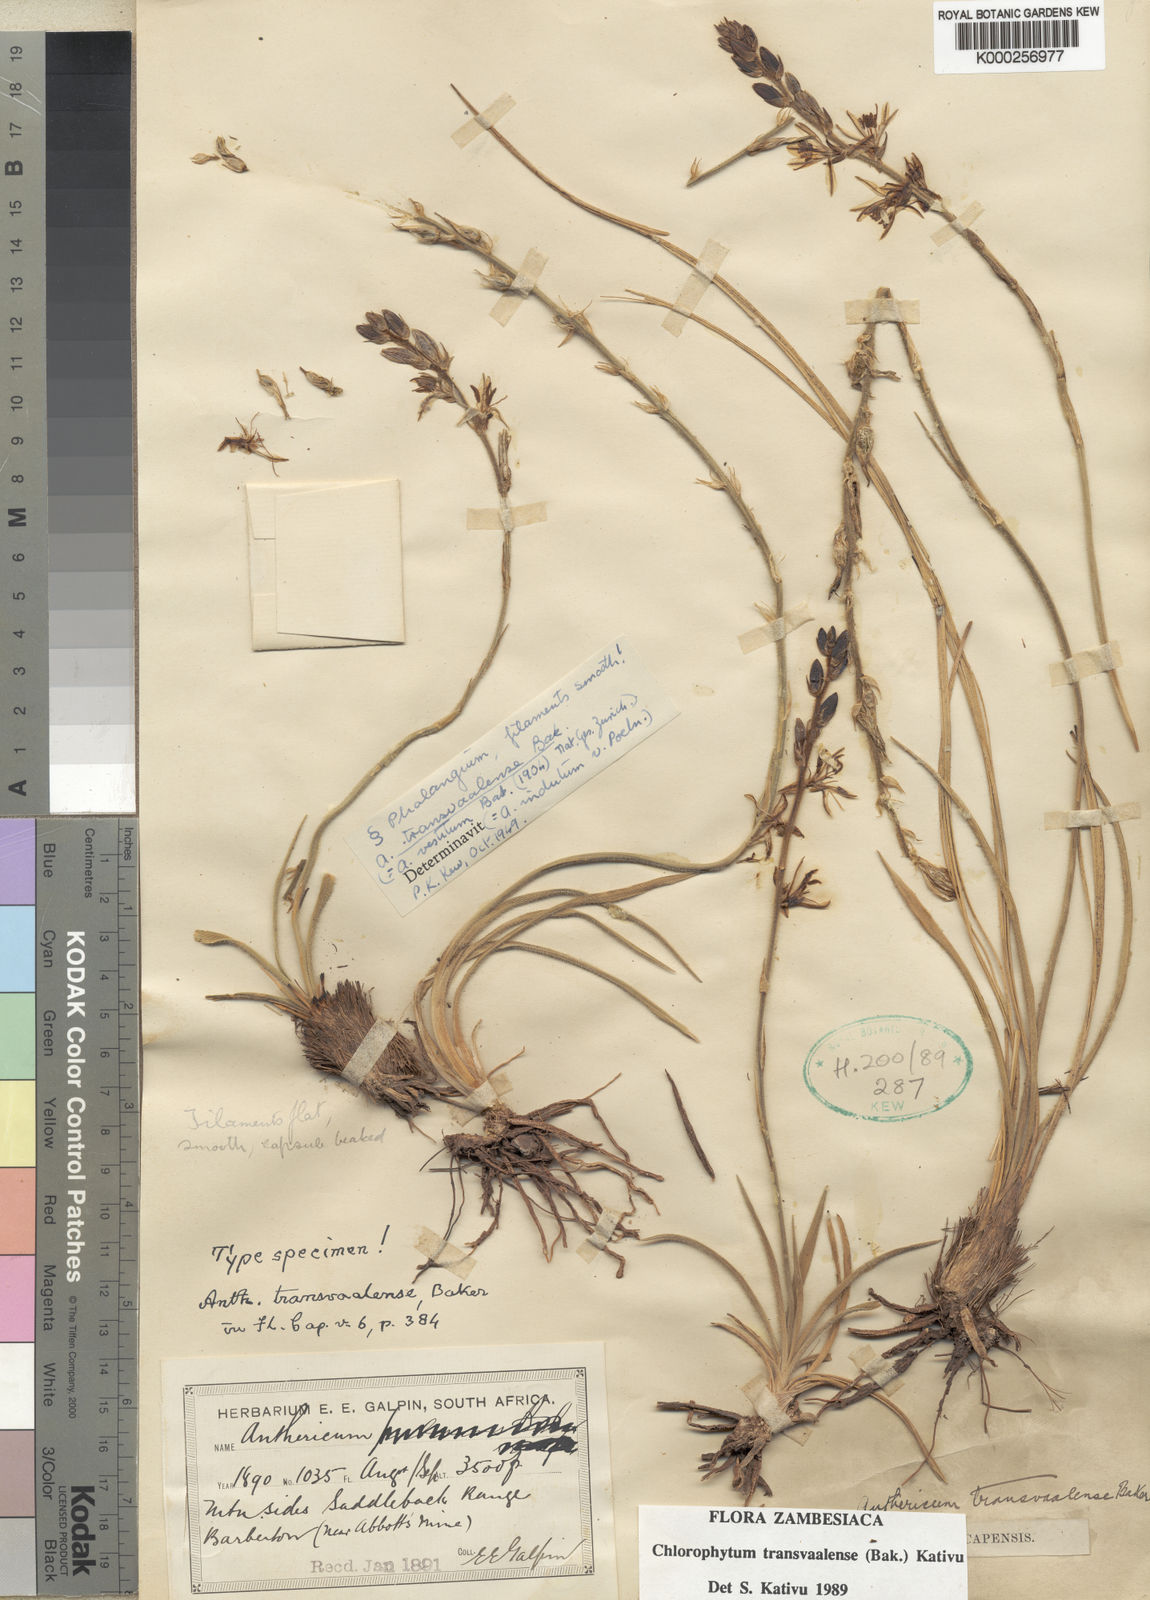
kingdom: Plantae
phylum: Tracheophyta
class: Liliopsida
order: Asparagales
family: Asparagaceae
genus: Chlorophytum
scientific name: Chlorophytum transvaalense
